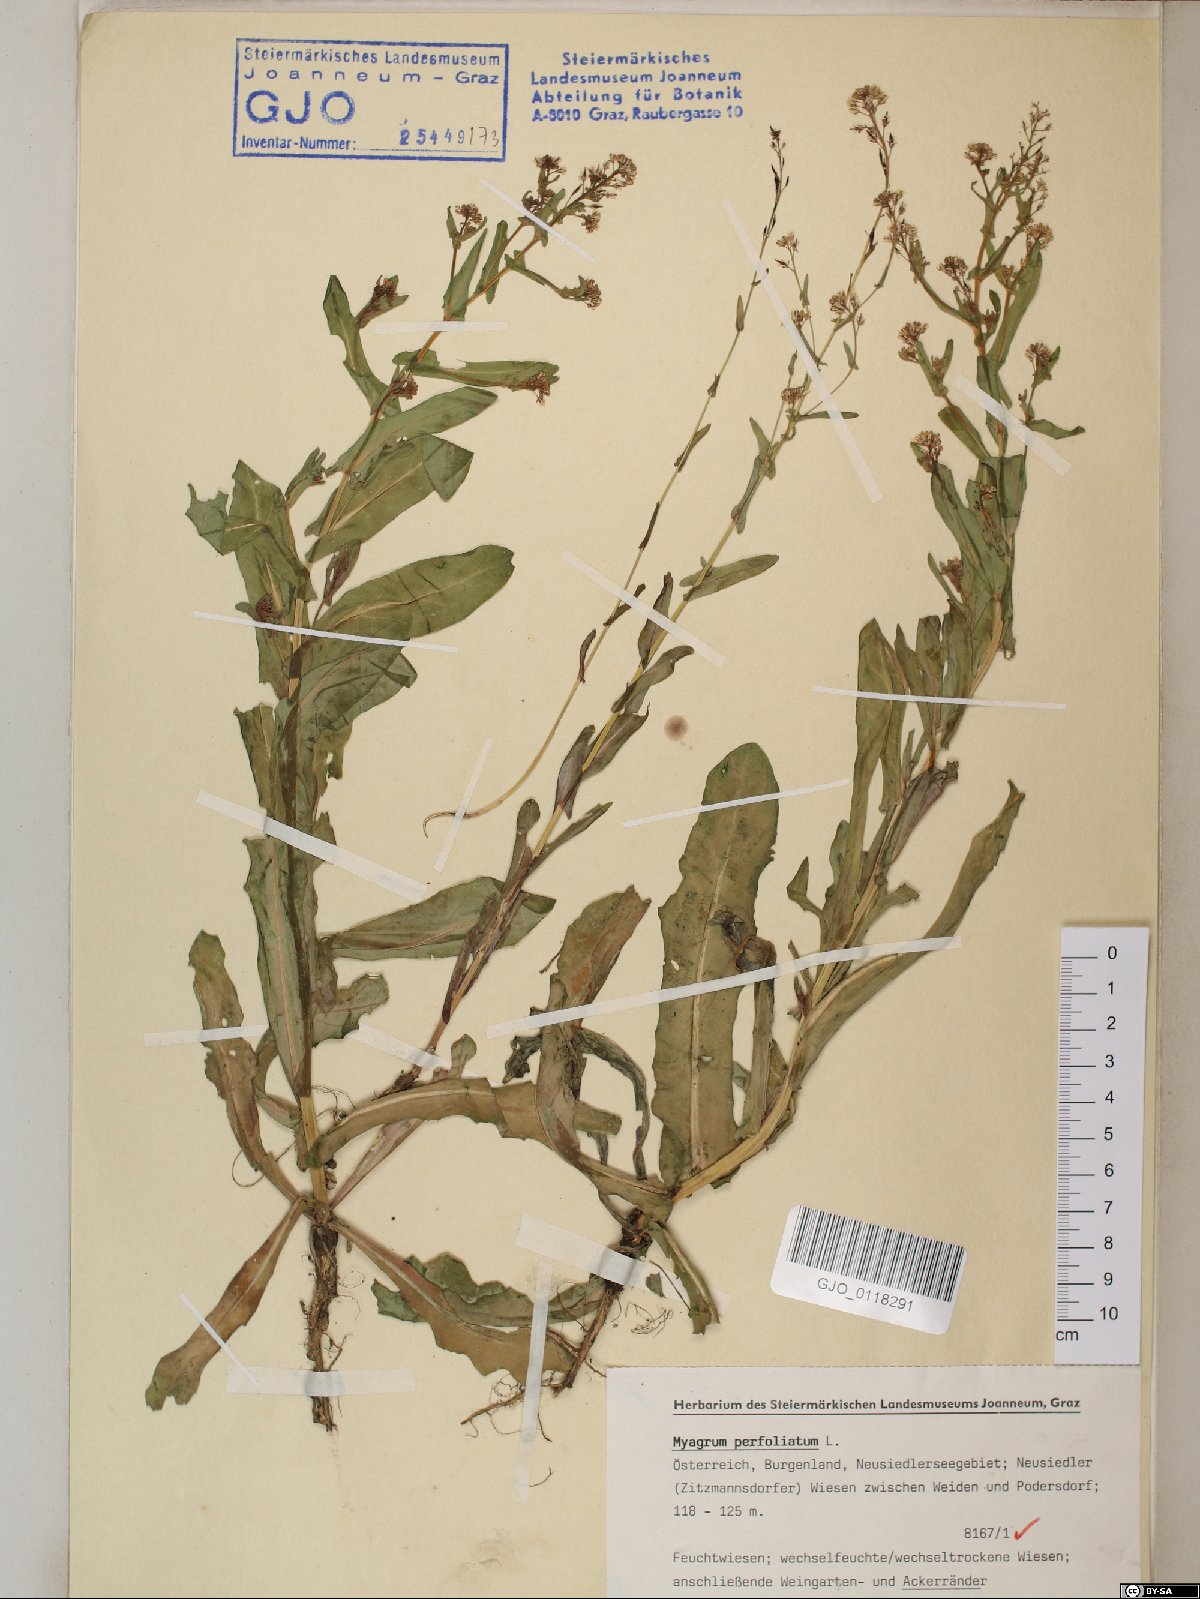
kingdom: Plantae
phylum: Tracheophyta
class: Magnoliopsida
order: Brassicales
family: Brassicaceae
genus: Myagrum
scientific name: Myagrum perfoliatum
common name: Mitre cress
